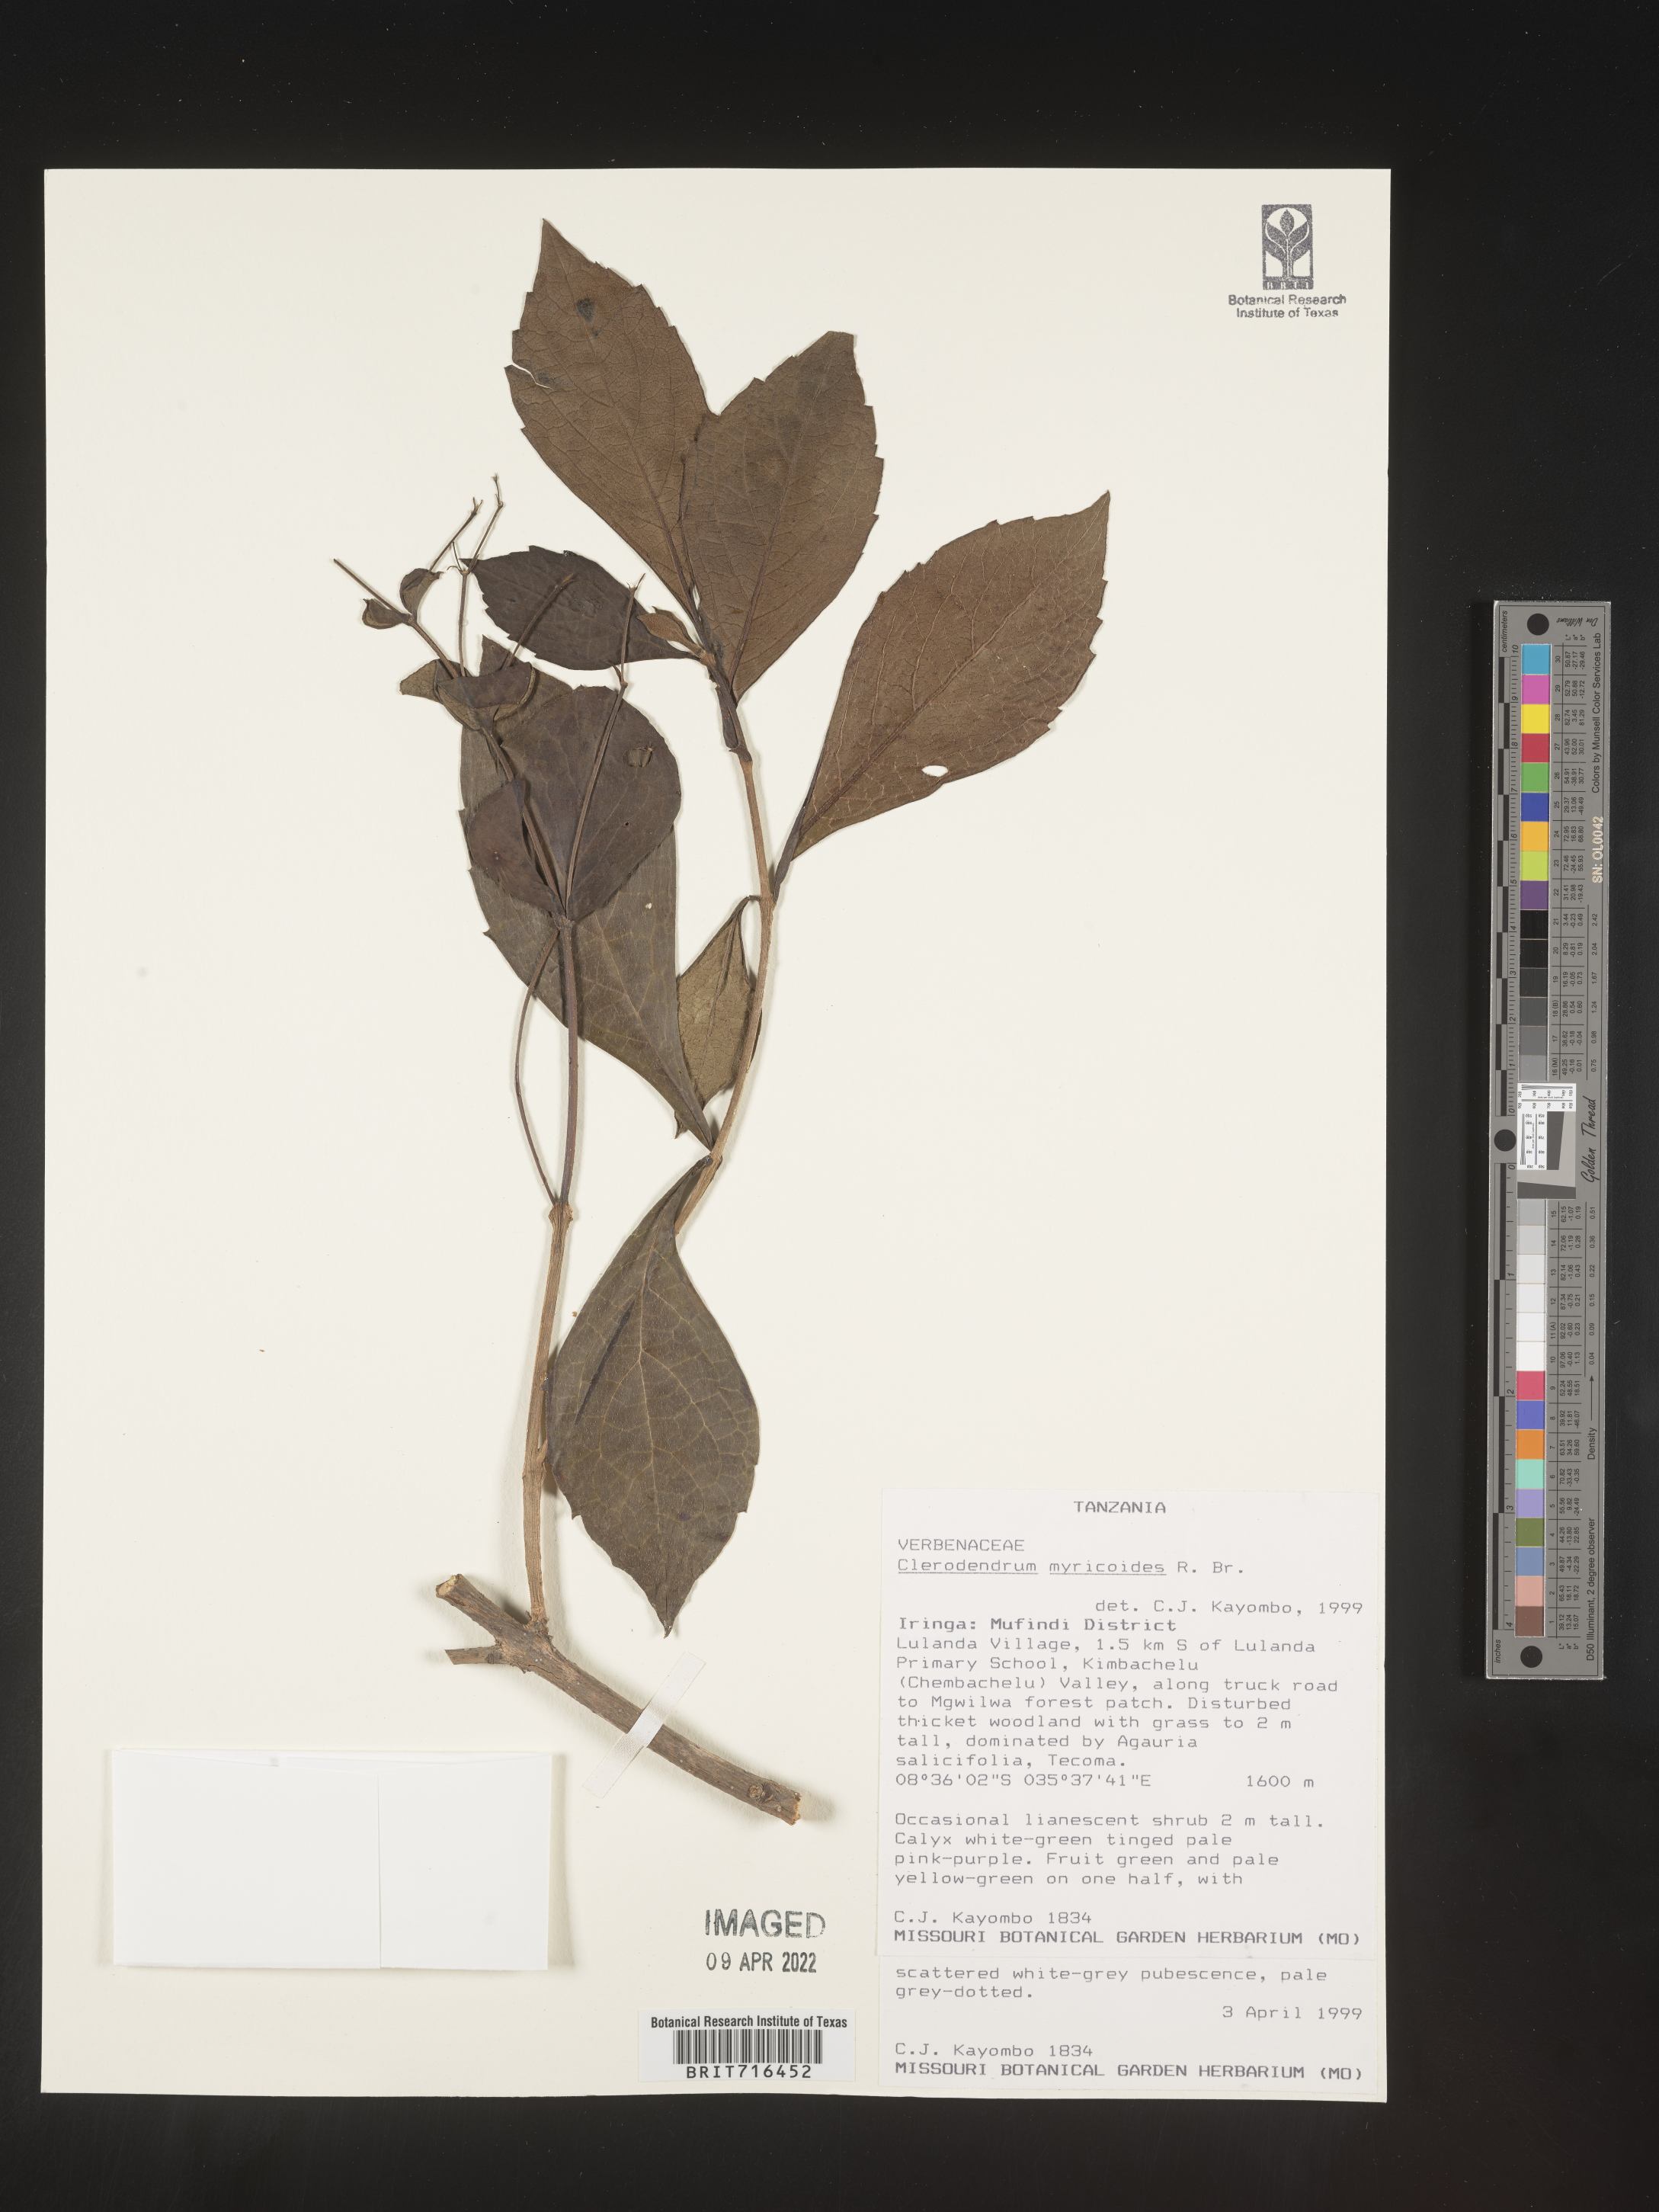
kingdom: Plantae
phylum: Tracheophyta
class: Magnoliopsida
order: Lamiales
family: Lamiaceae
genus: Clerodendrum
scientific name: Clerodendrum
